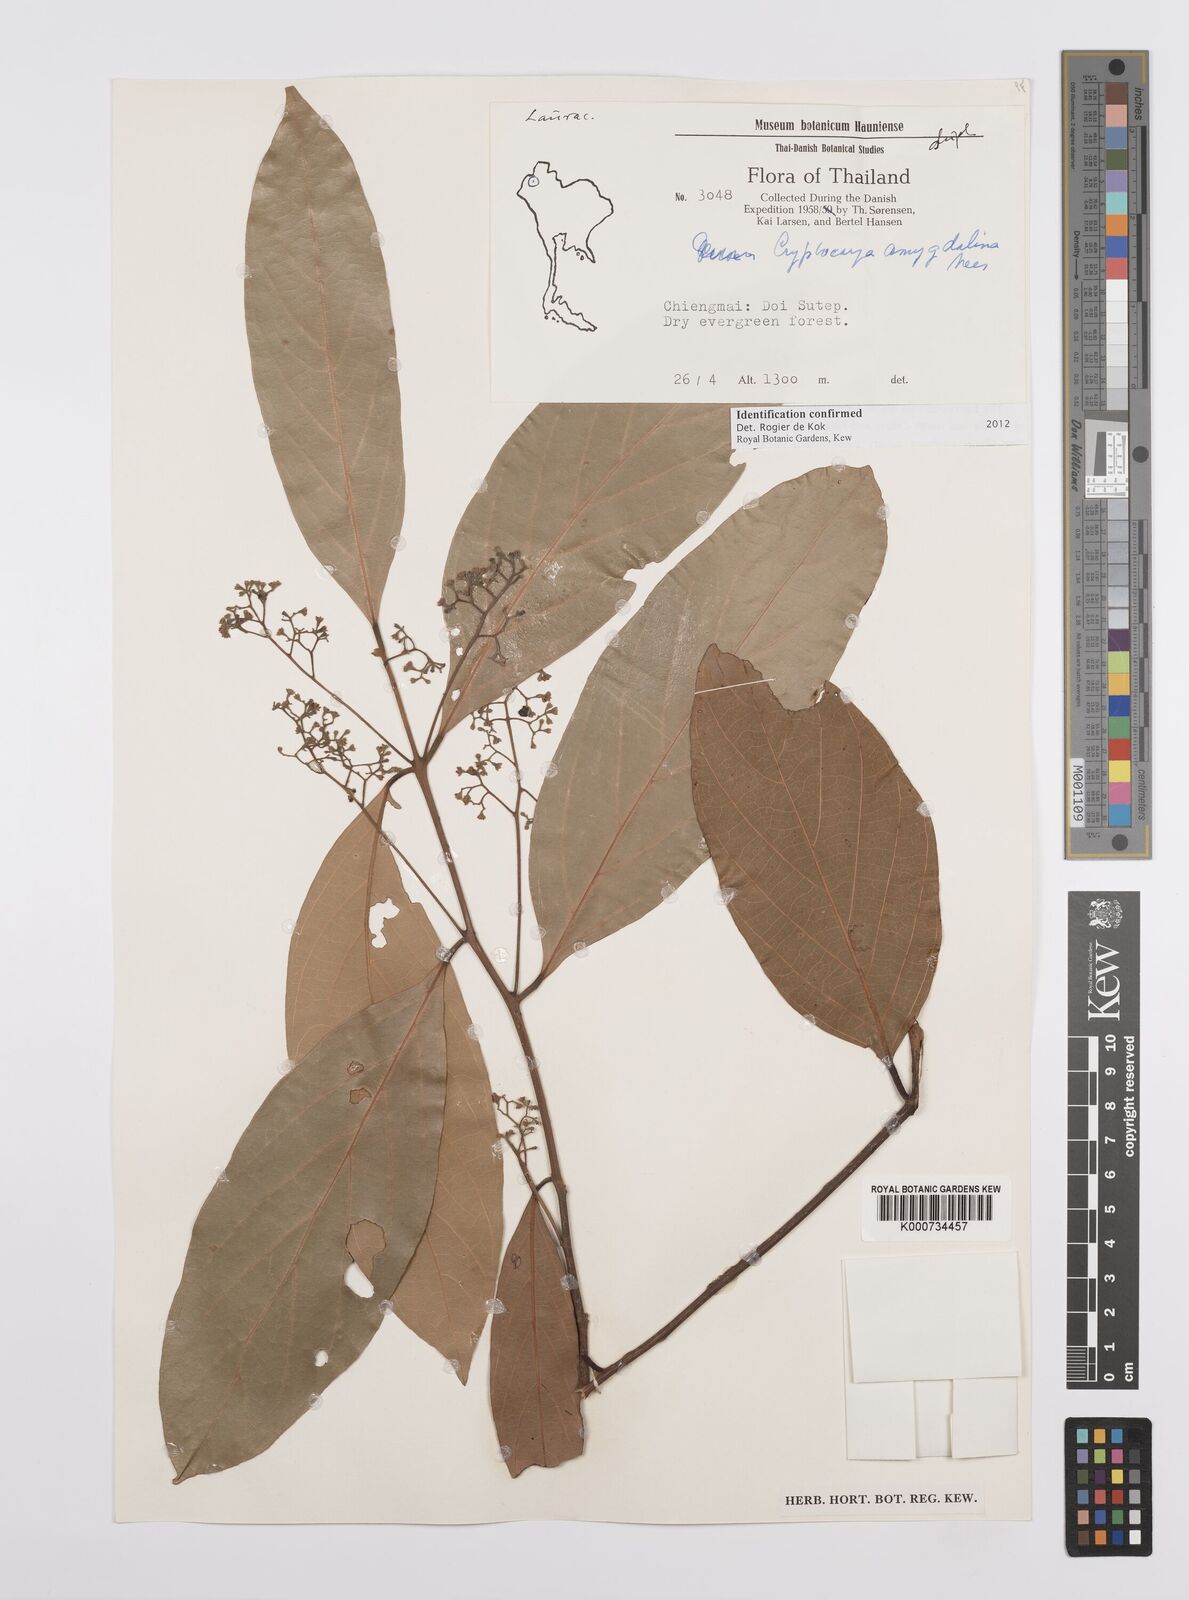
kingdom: Plantae
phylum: Tracheophyta
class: Magnoliopsida
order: Laurales
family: Lauraceae
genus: Cryptocarya
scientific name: Cryptocarya amygdalina
